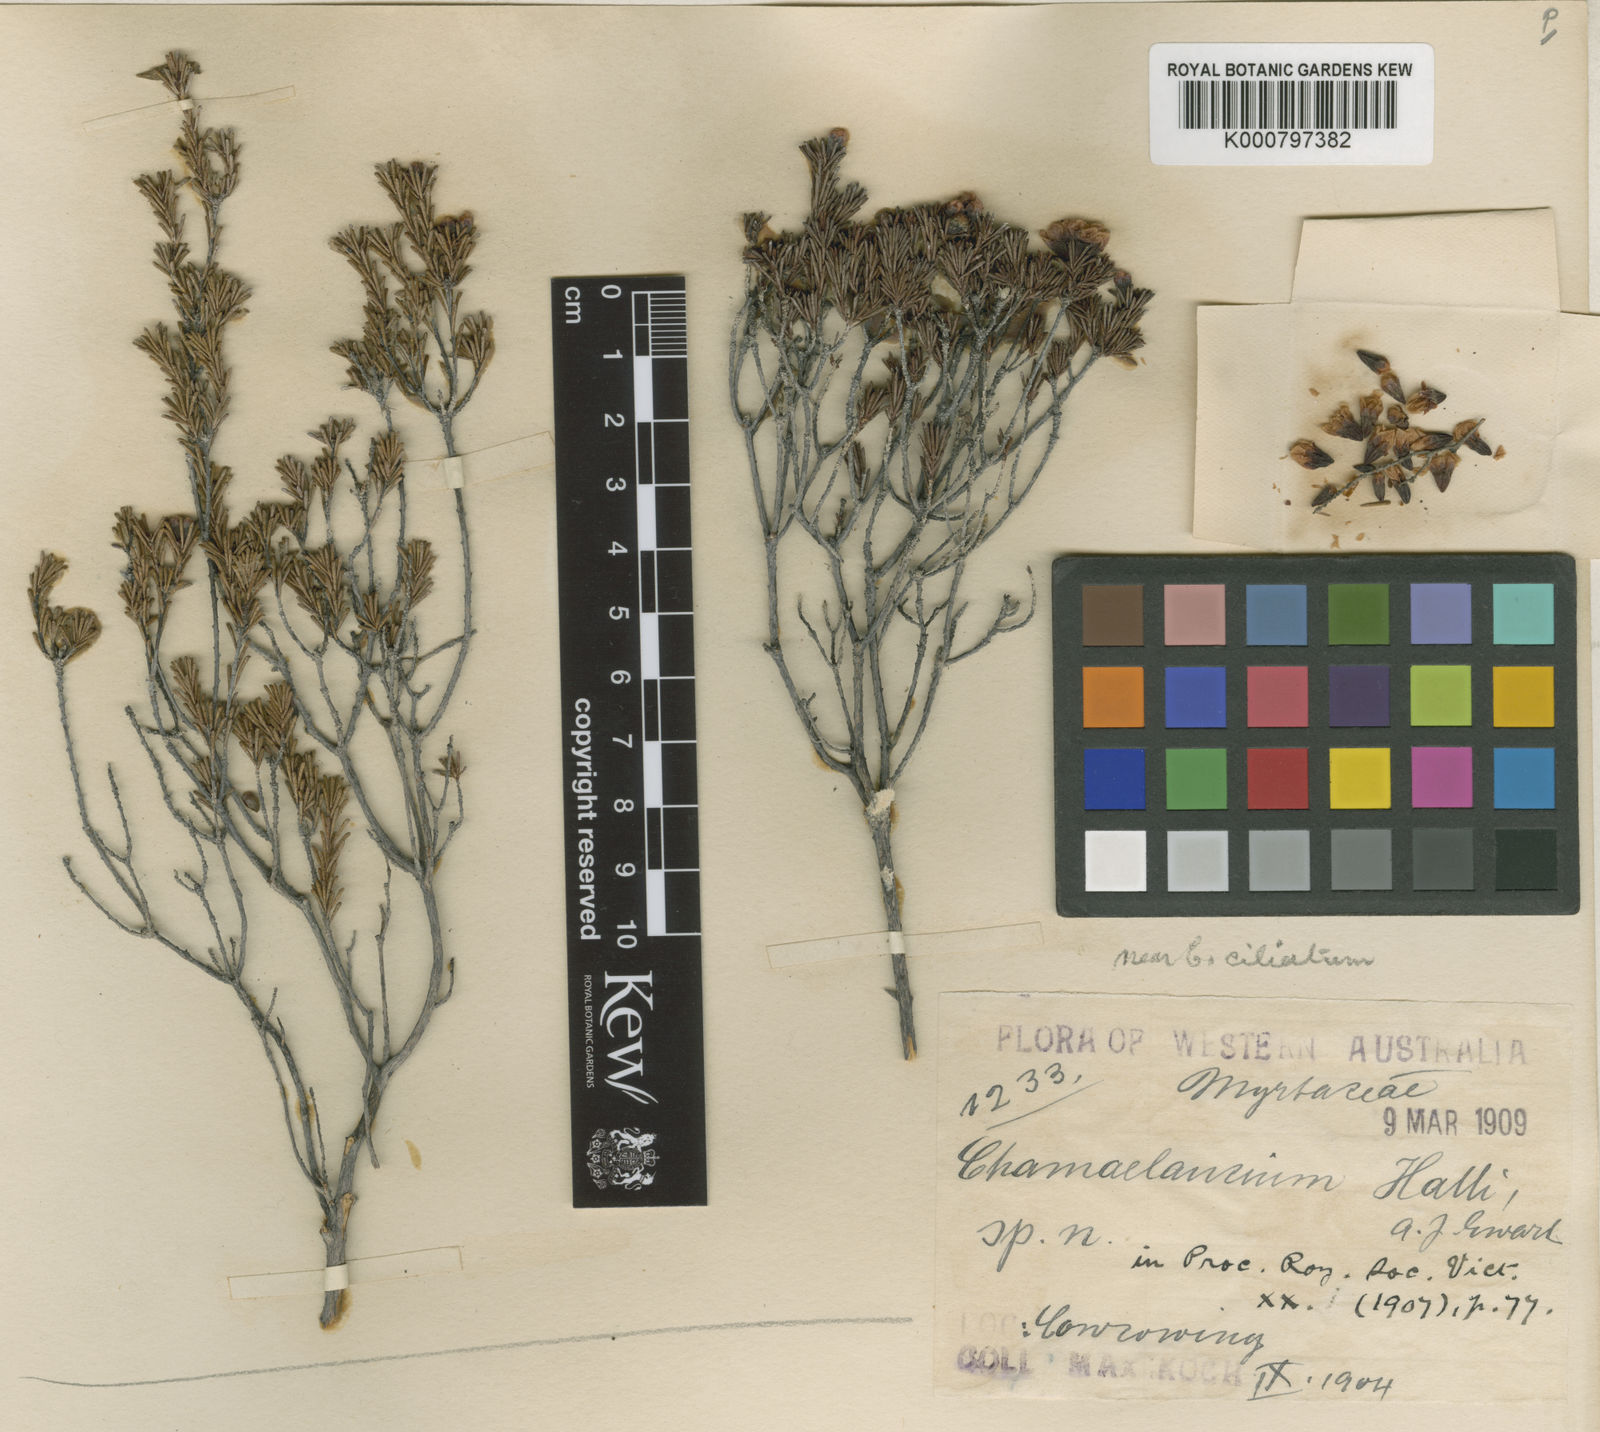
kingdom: Plantae
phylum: Tracheophyta
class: Magnoliopsida
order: Myrtales
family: Myrtaceae
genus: Chamelaucium
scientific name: Chamelaucium
